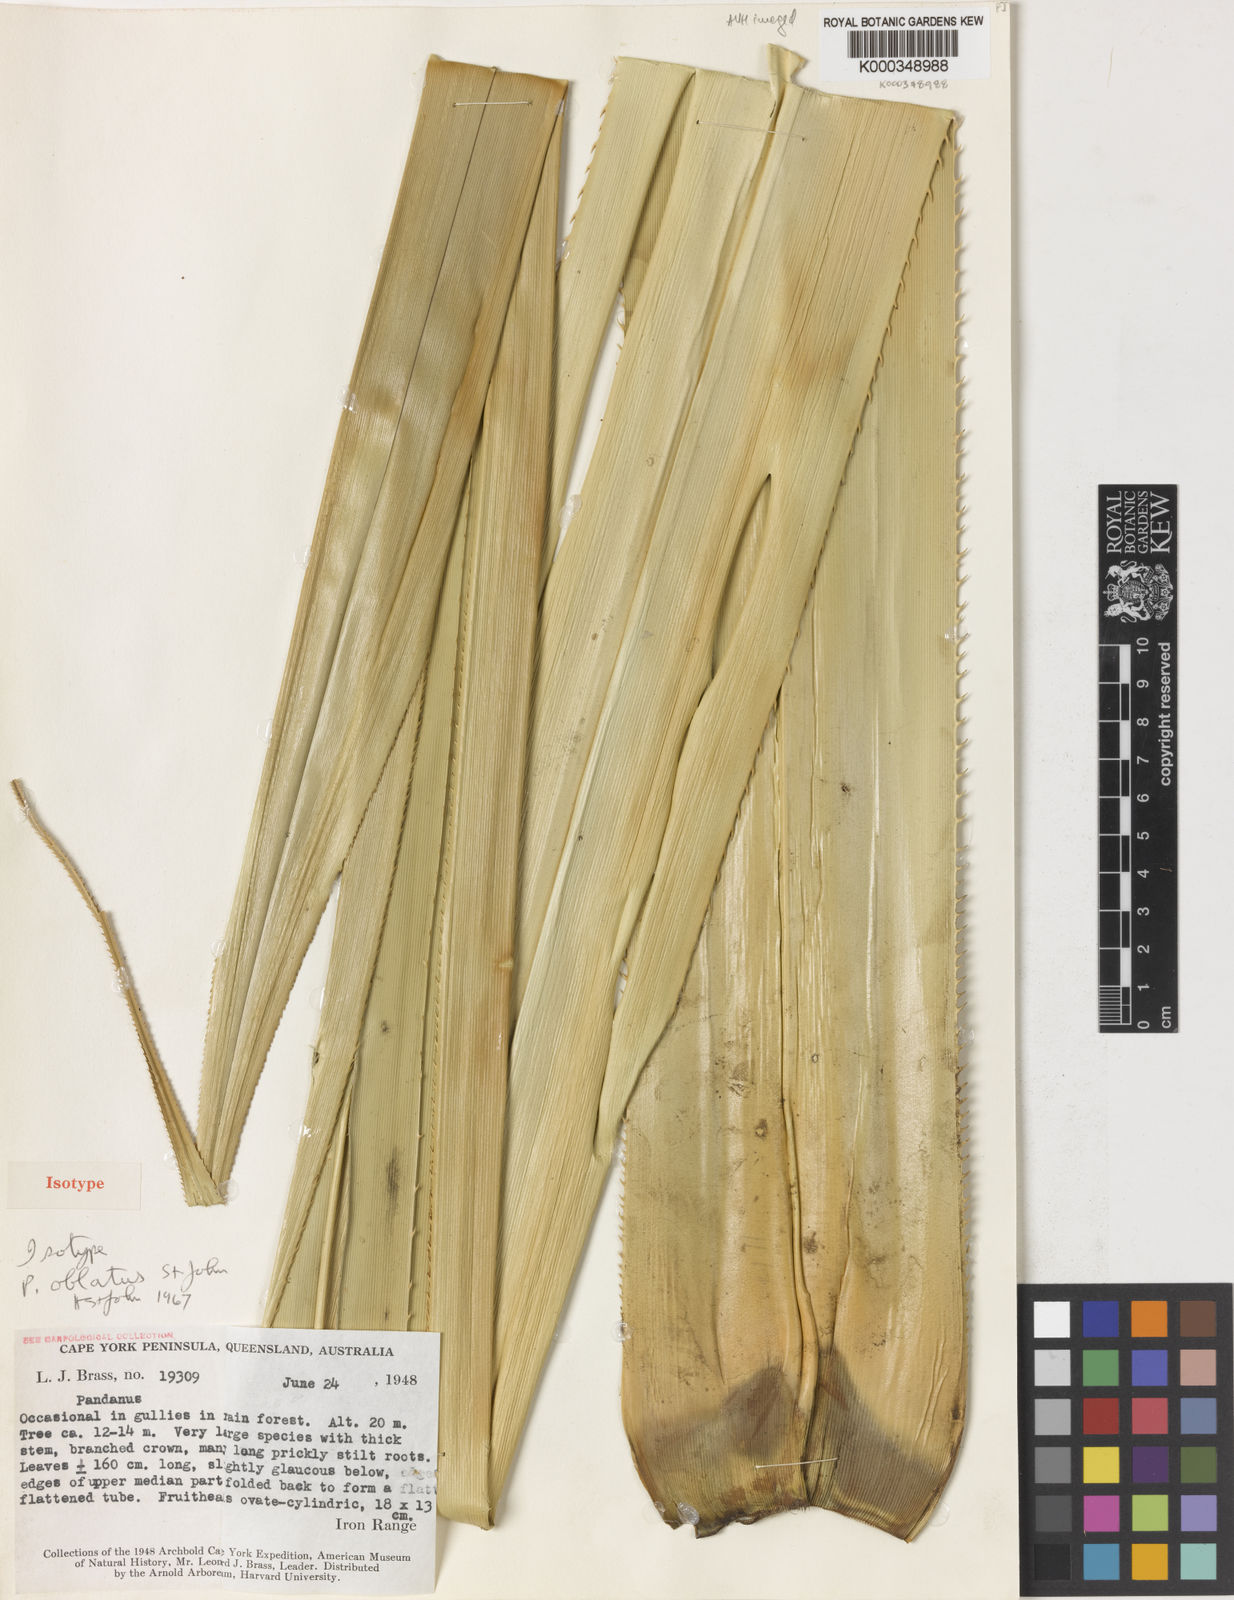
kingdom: Plantae
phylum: Tracheophyta
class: Liliopsida
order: Pandanales
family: Pandanaceae
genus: Pandanus
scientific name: Pandanus oblatus
